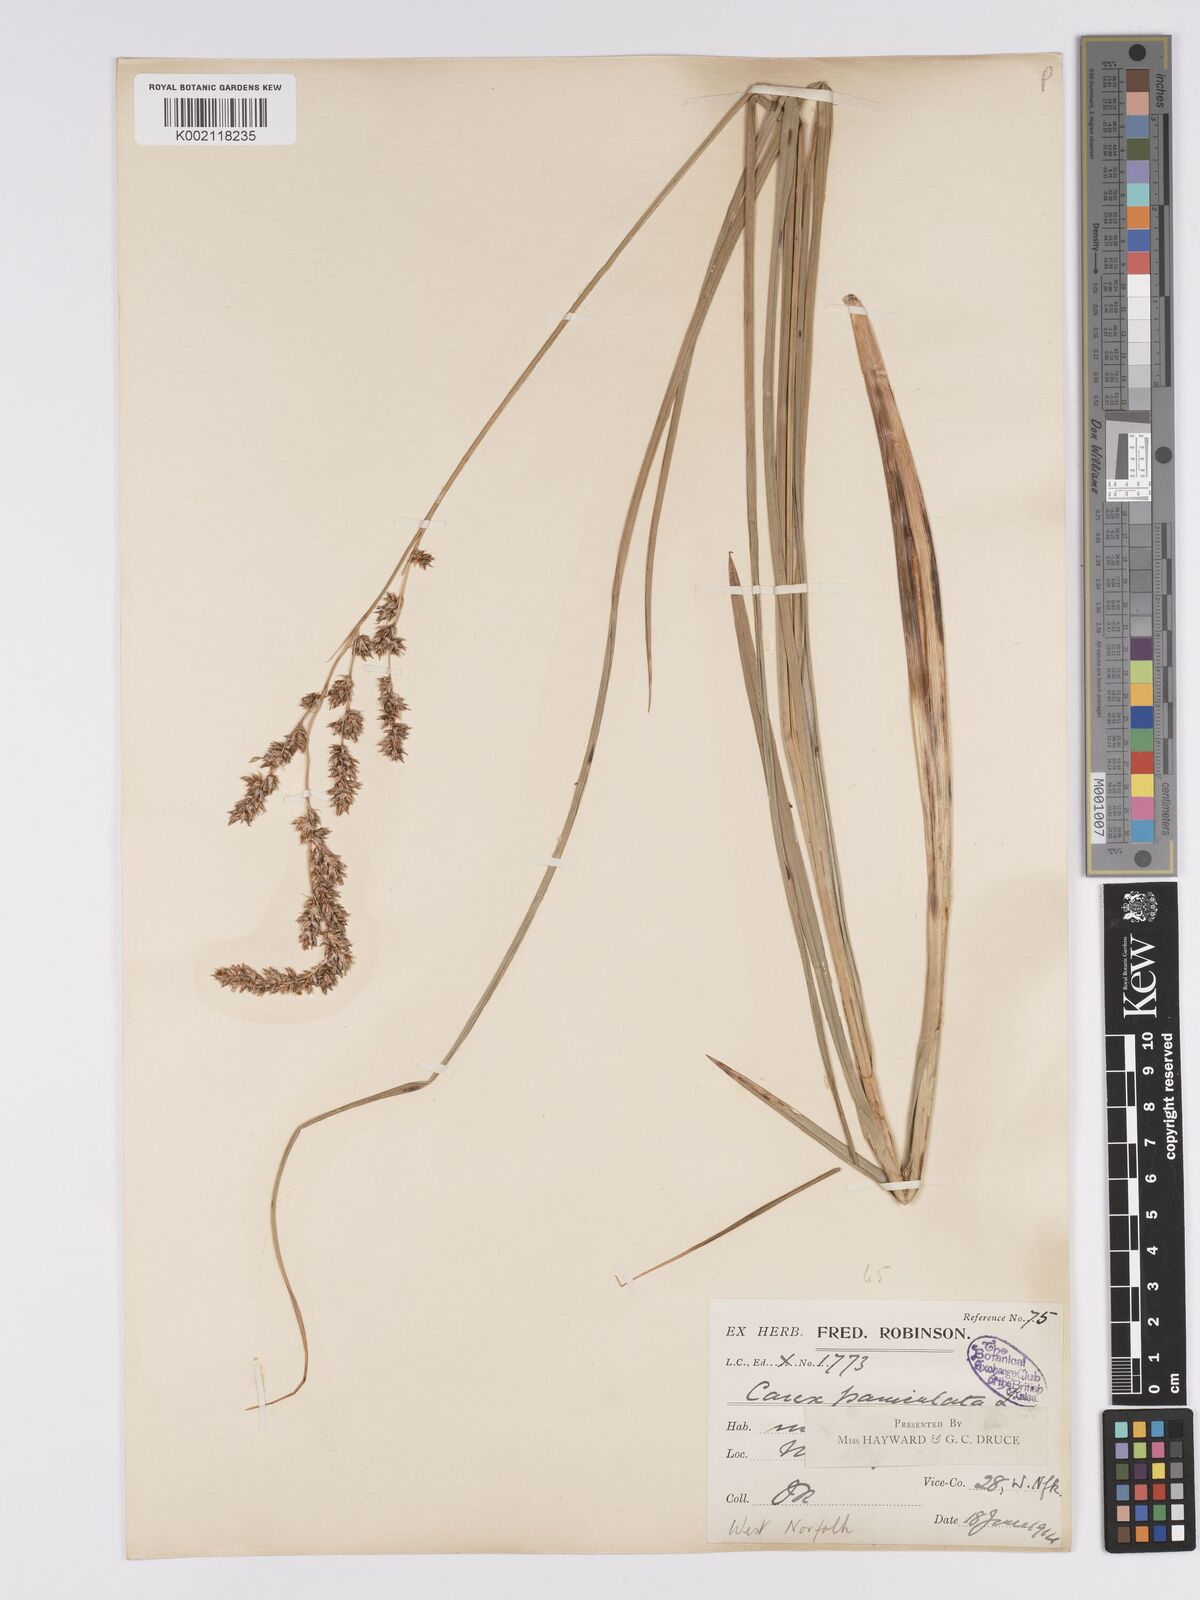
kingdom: Plantae
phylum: Tracheophyta
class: Liliopsida
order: Poales
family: Cyperaceae
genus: Carex
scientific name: Carex paniculata
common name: Greater tussock-sedge
